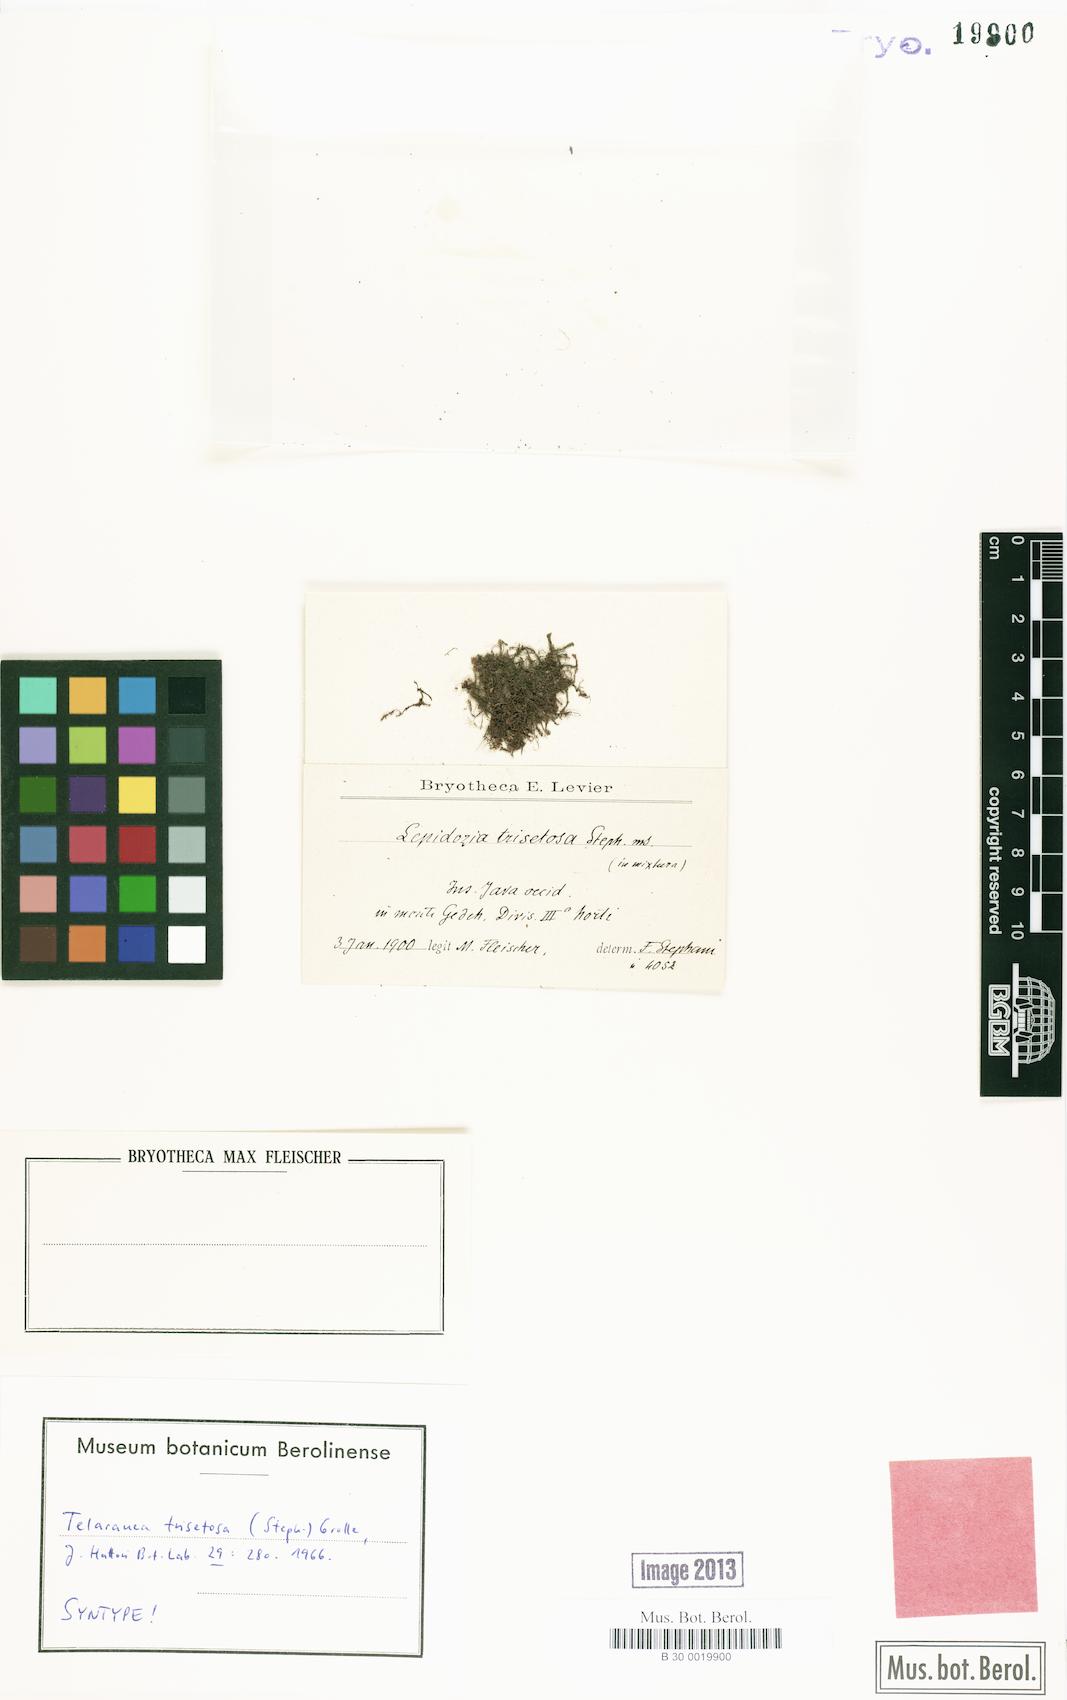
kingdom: Plantae
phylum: Marchantiophyta
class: Jungermanniopsida
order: Jungermanniales
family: Lepidoziaceae
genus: Telaranea
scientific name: Telaranea trisetosa
